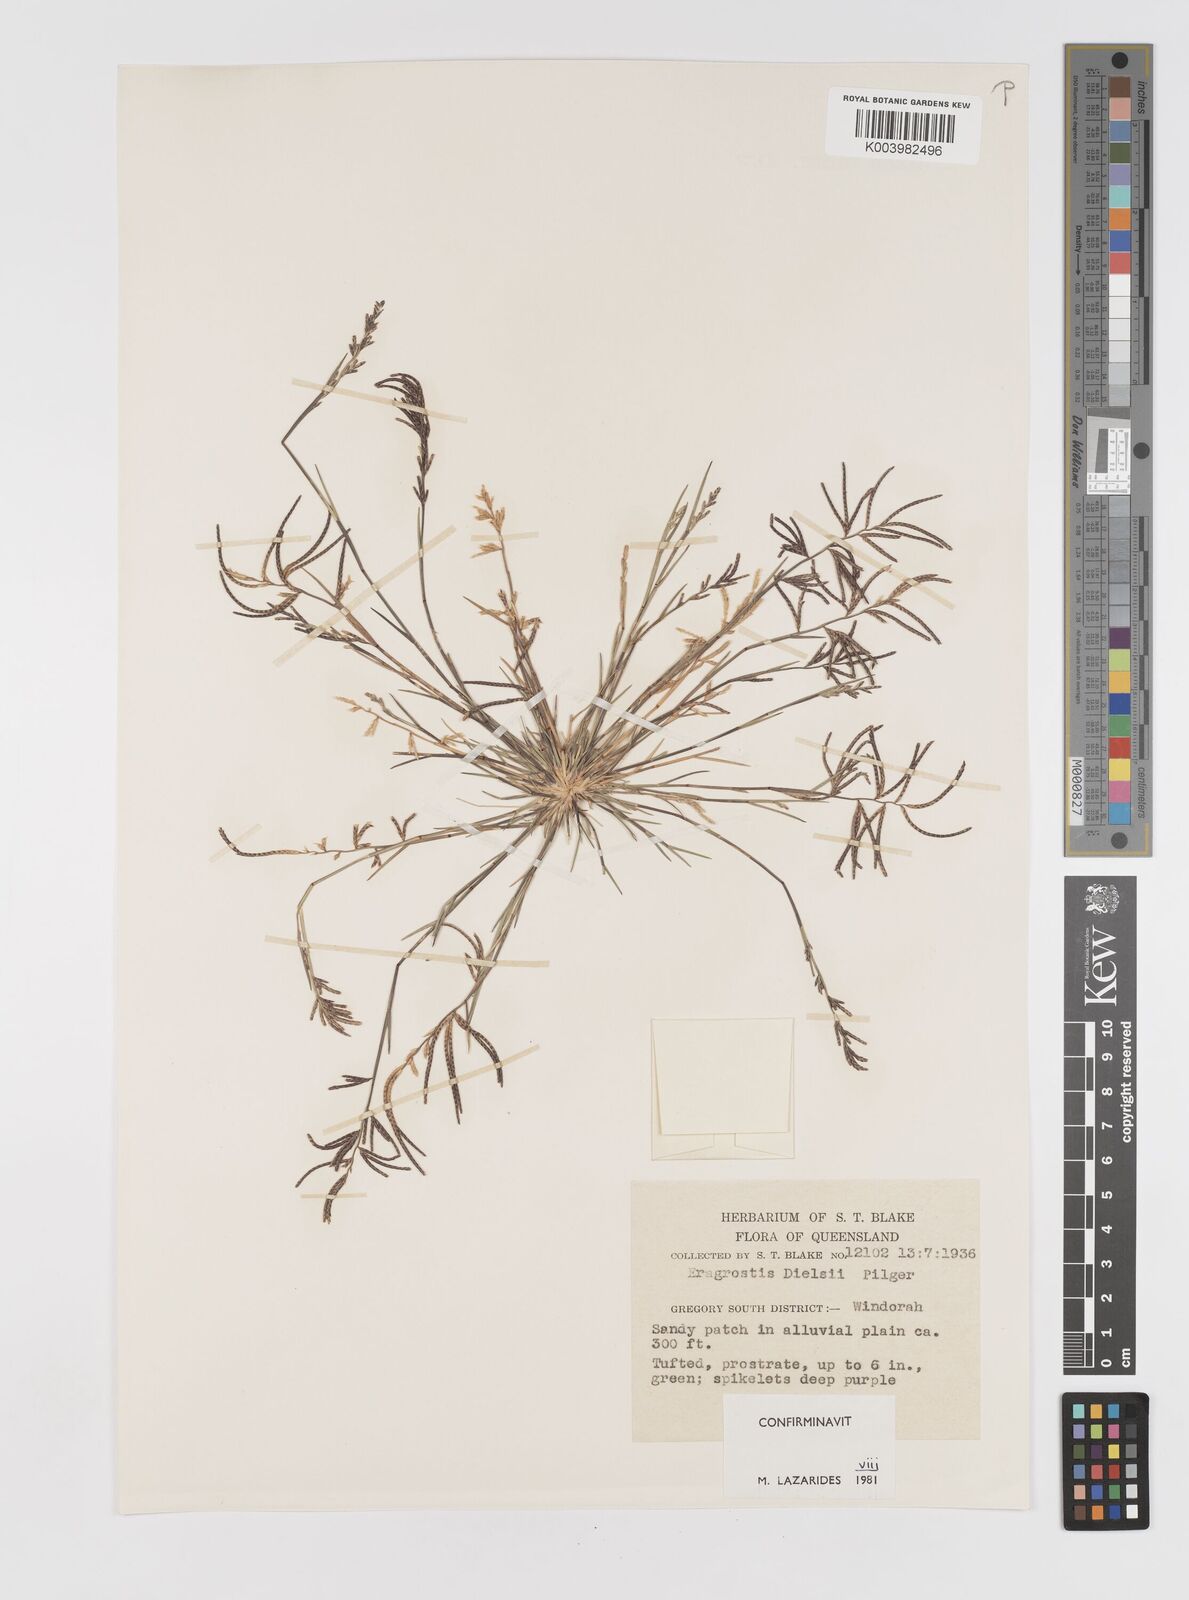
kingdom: Plantae
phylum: Tracheophyta
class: Liliopsida
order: Poales
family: Poaceae
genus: Eragrostis
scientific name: Eragrostis dielsii
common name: Lovegrass
